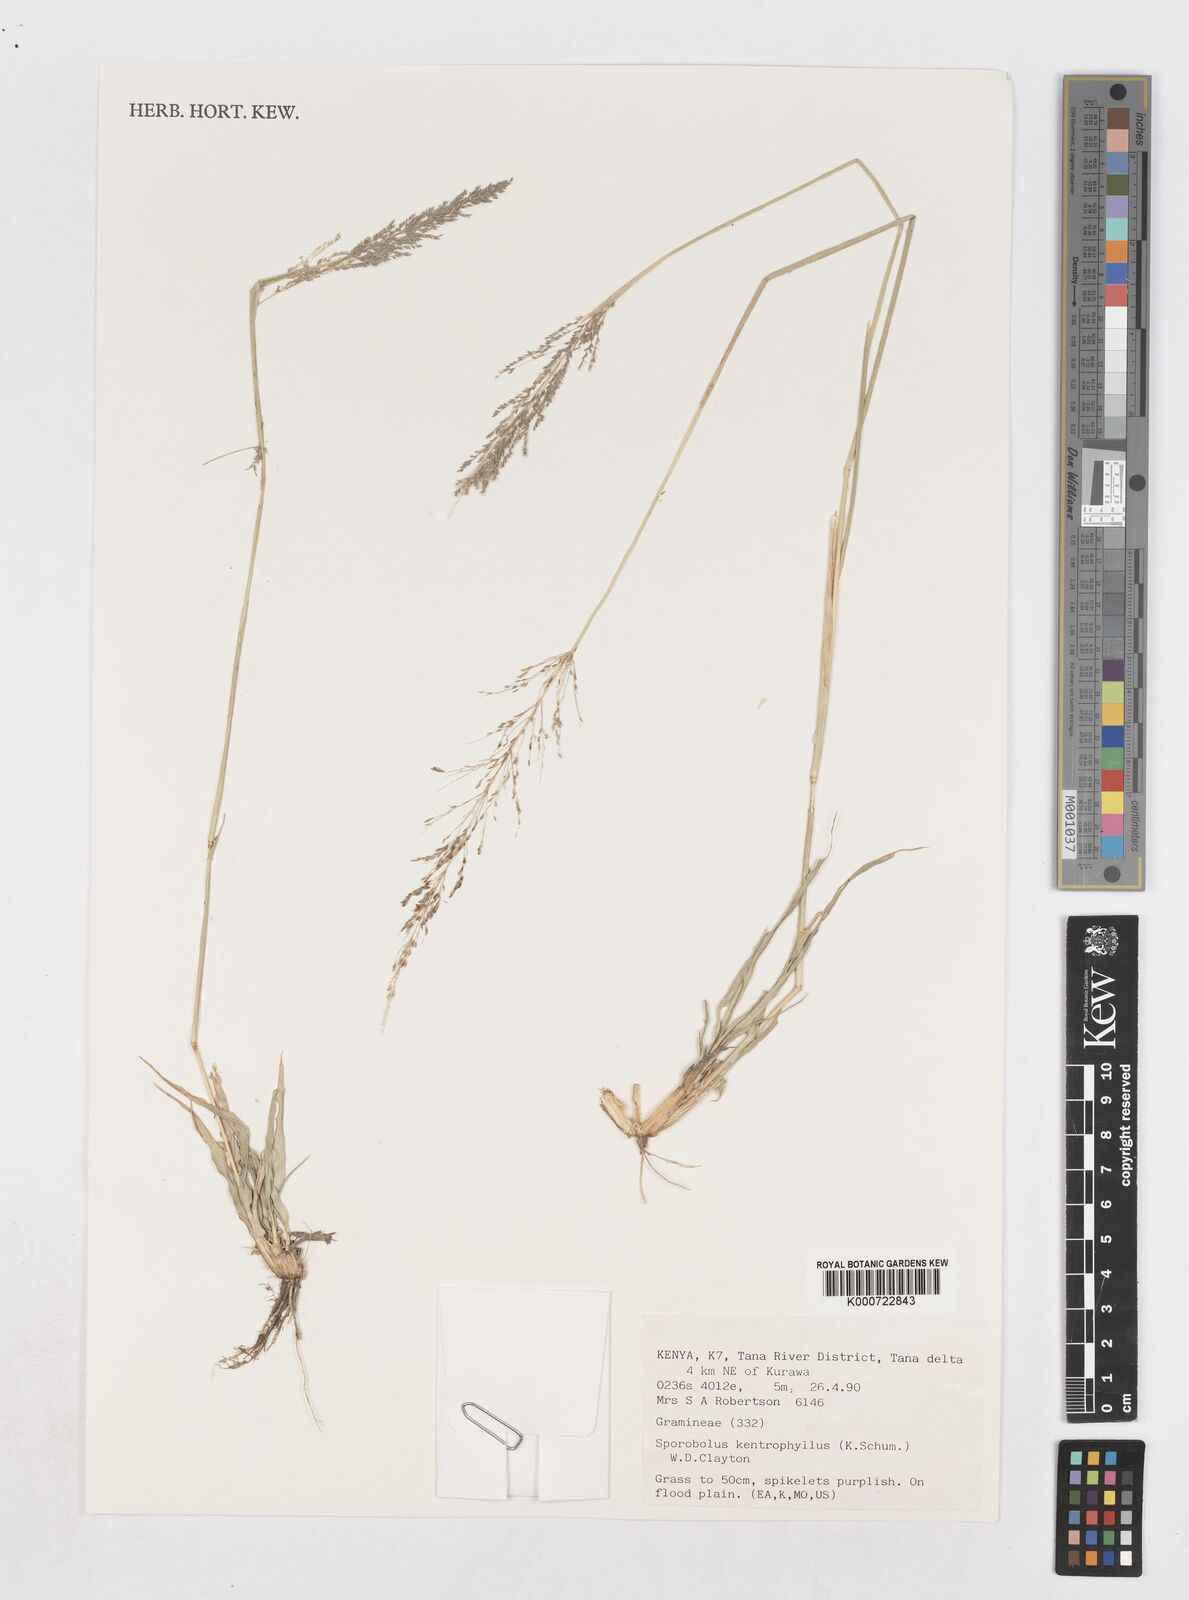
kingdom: Plantae
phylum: Tracheophyta
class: Liliopsida
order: Poales
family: Poaceae
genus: Sporobolus
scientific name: Sporobolus ioclados
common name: Pan dropseed
